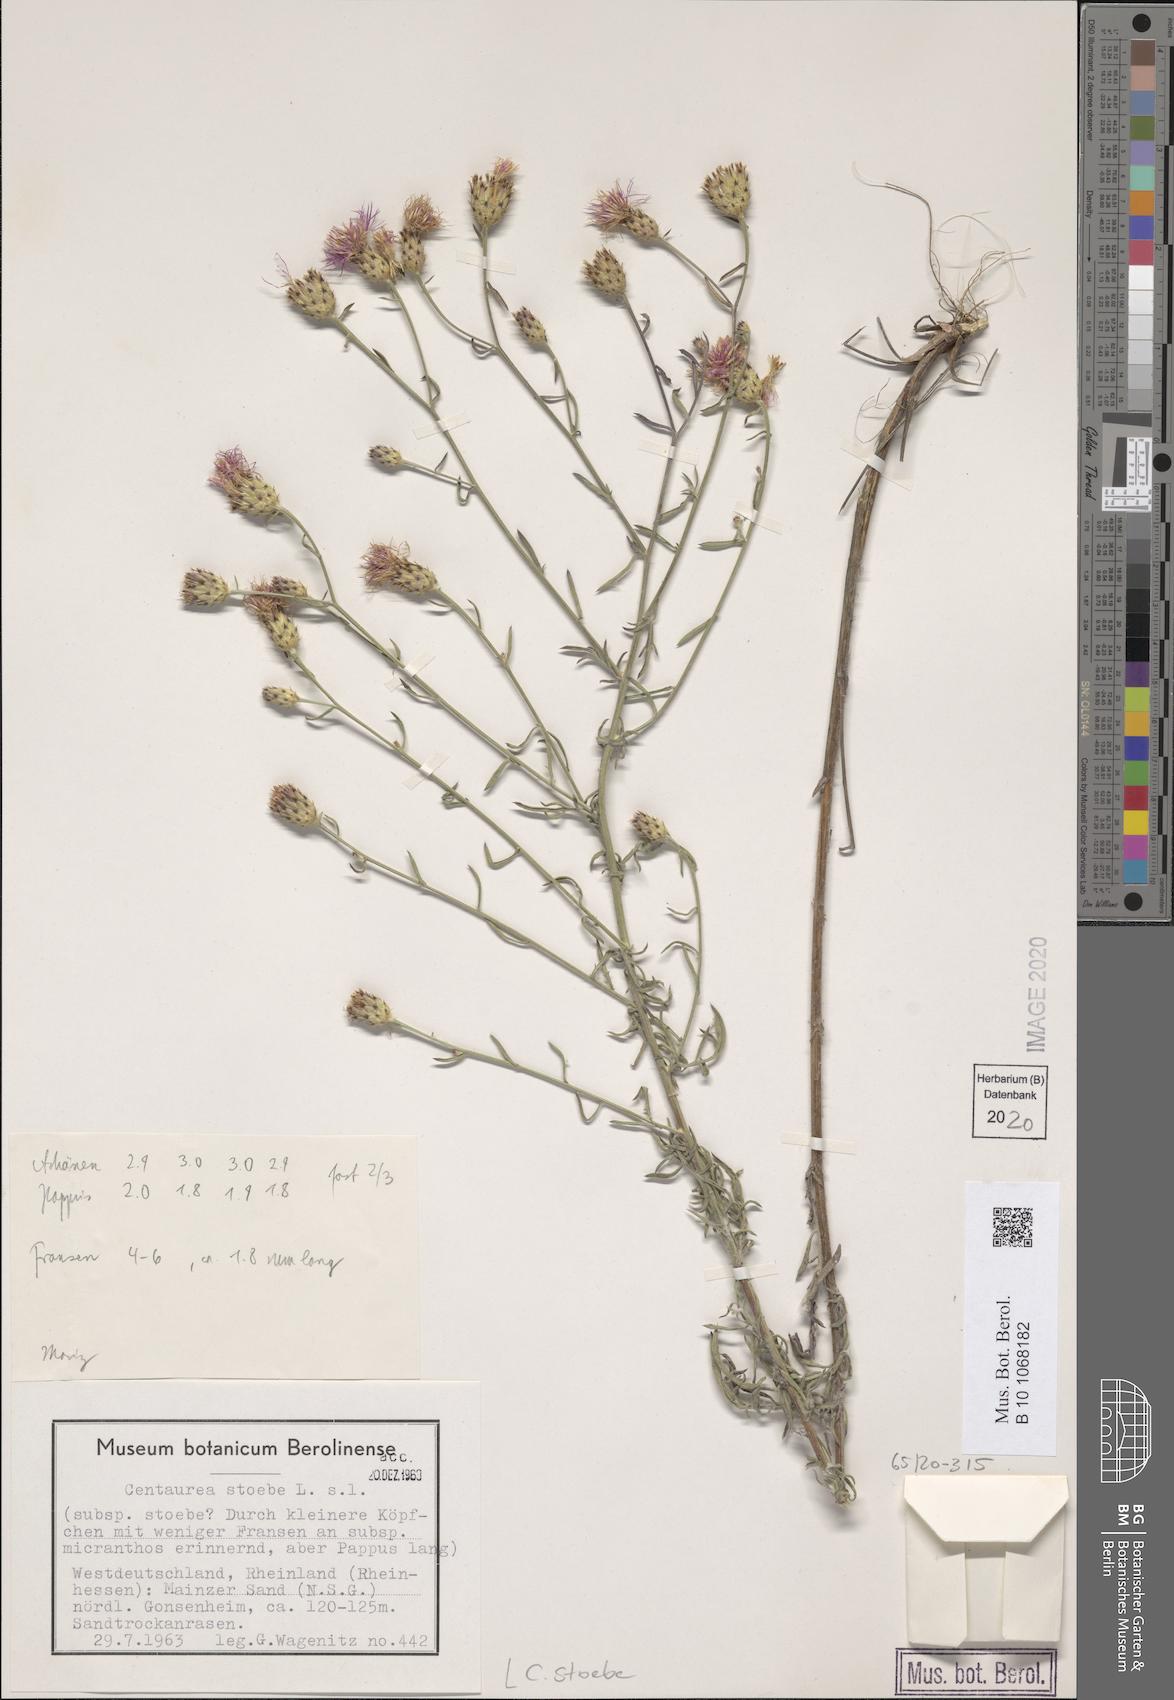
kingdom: Plantae
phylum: Tracheophyta
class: Magnoliopsida
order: Asterales
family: Asteraceae
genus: Centaurea
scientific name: Centaurea stoebe
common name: Spotted knapweed
